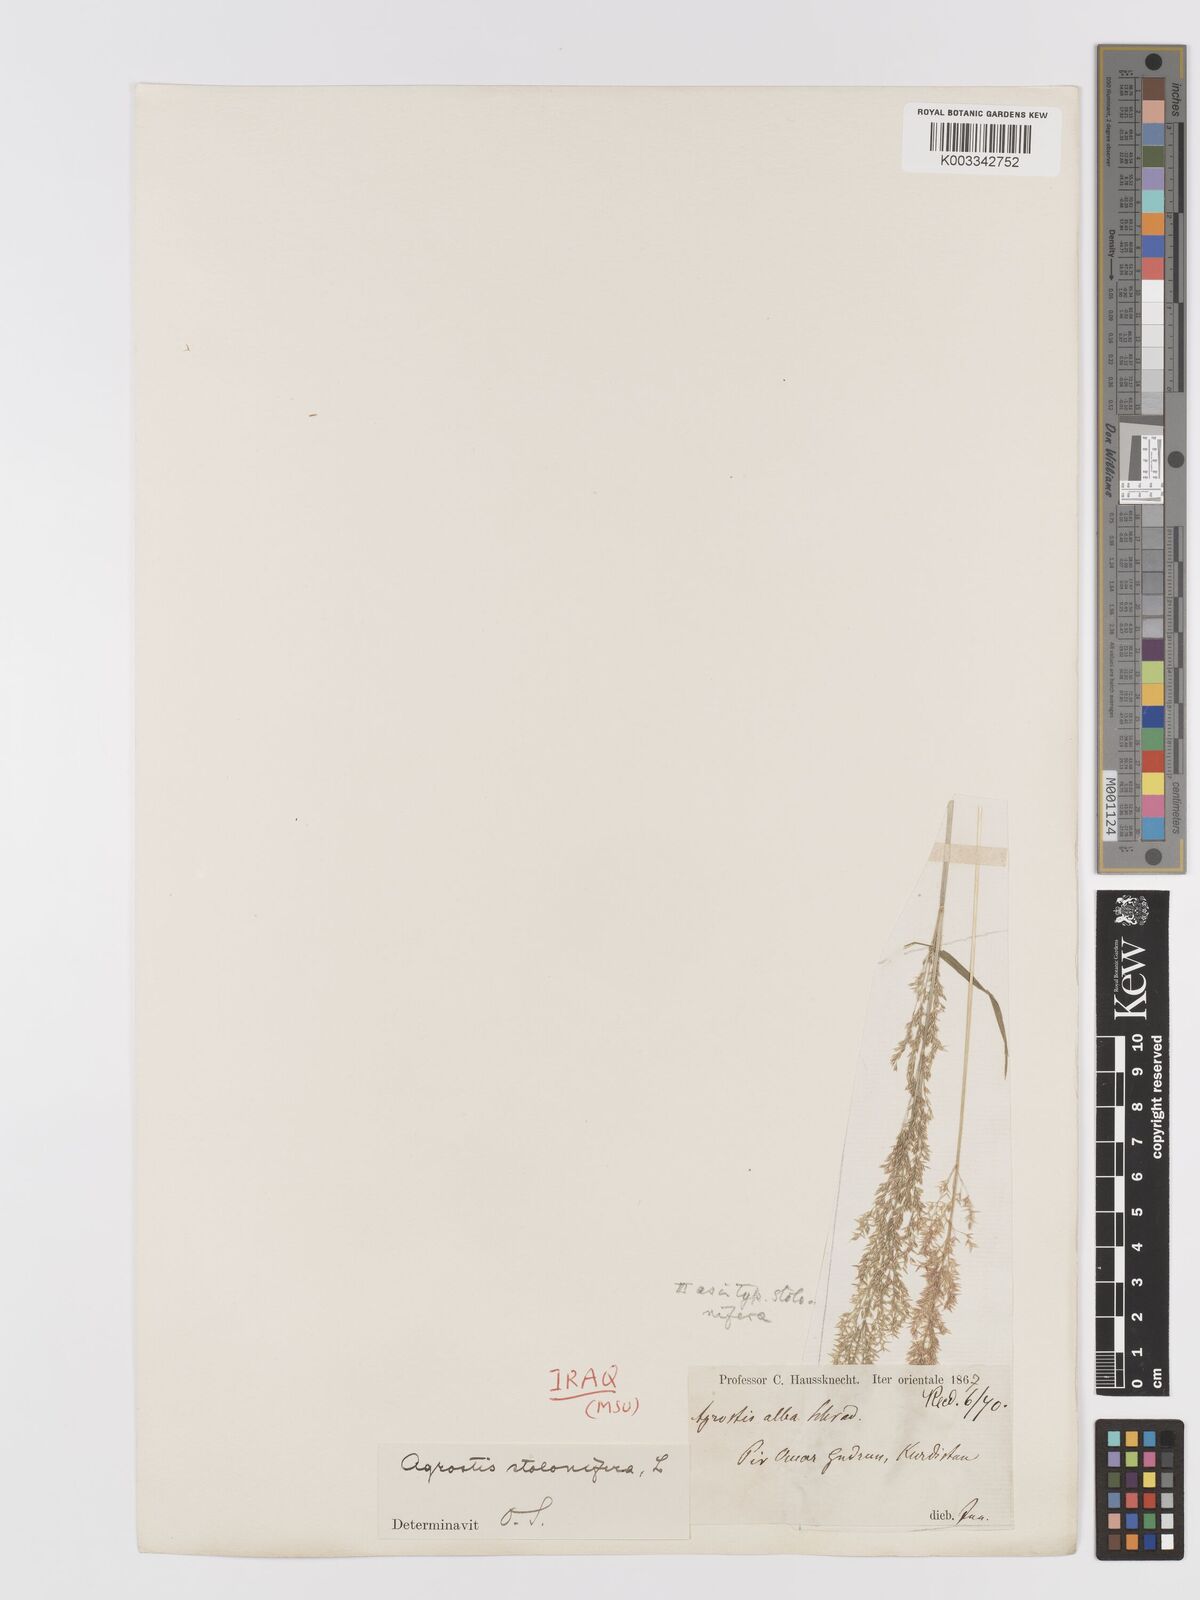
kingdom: Plantae
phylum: Tracheophyta
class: Liliopsida
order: Poales
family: Poaceae
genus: Agrostis
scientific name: Agrostis stolonifera
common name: Creeping bentgrass
